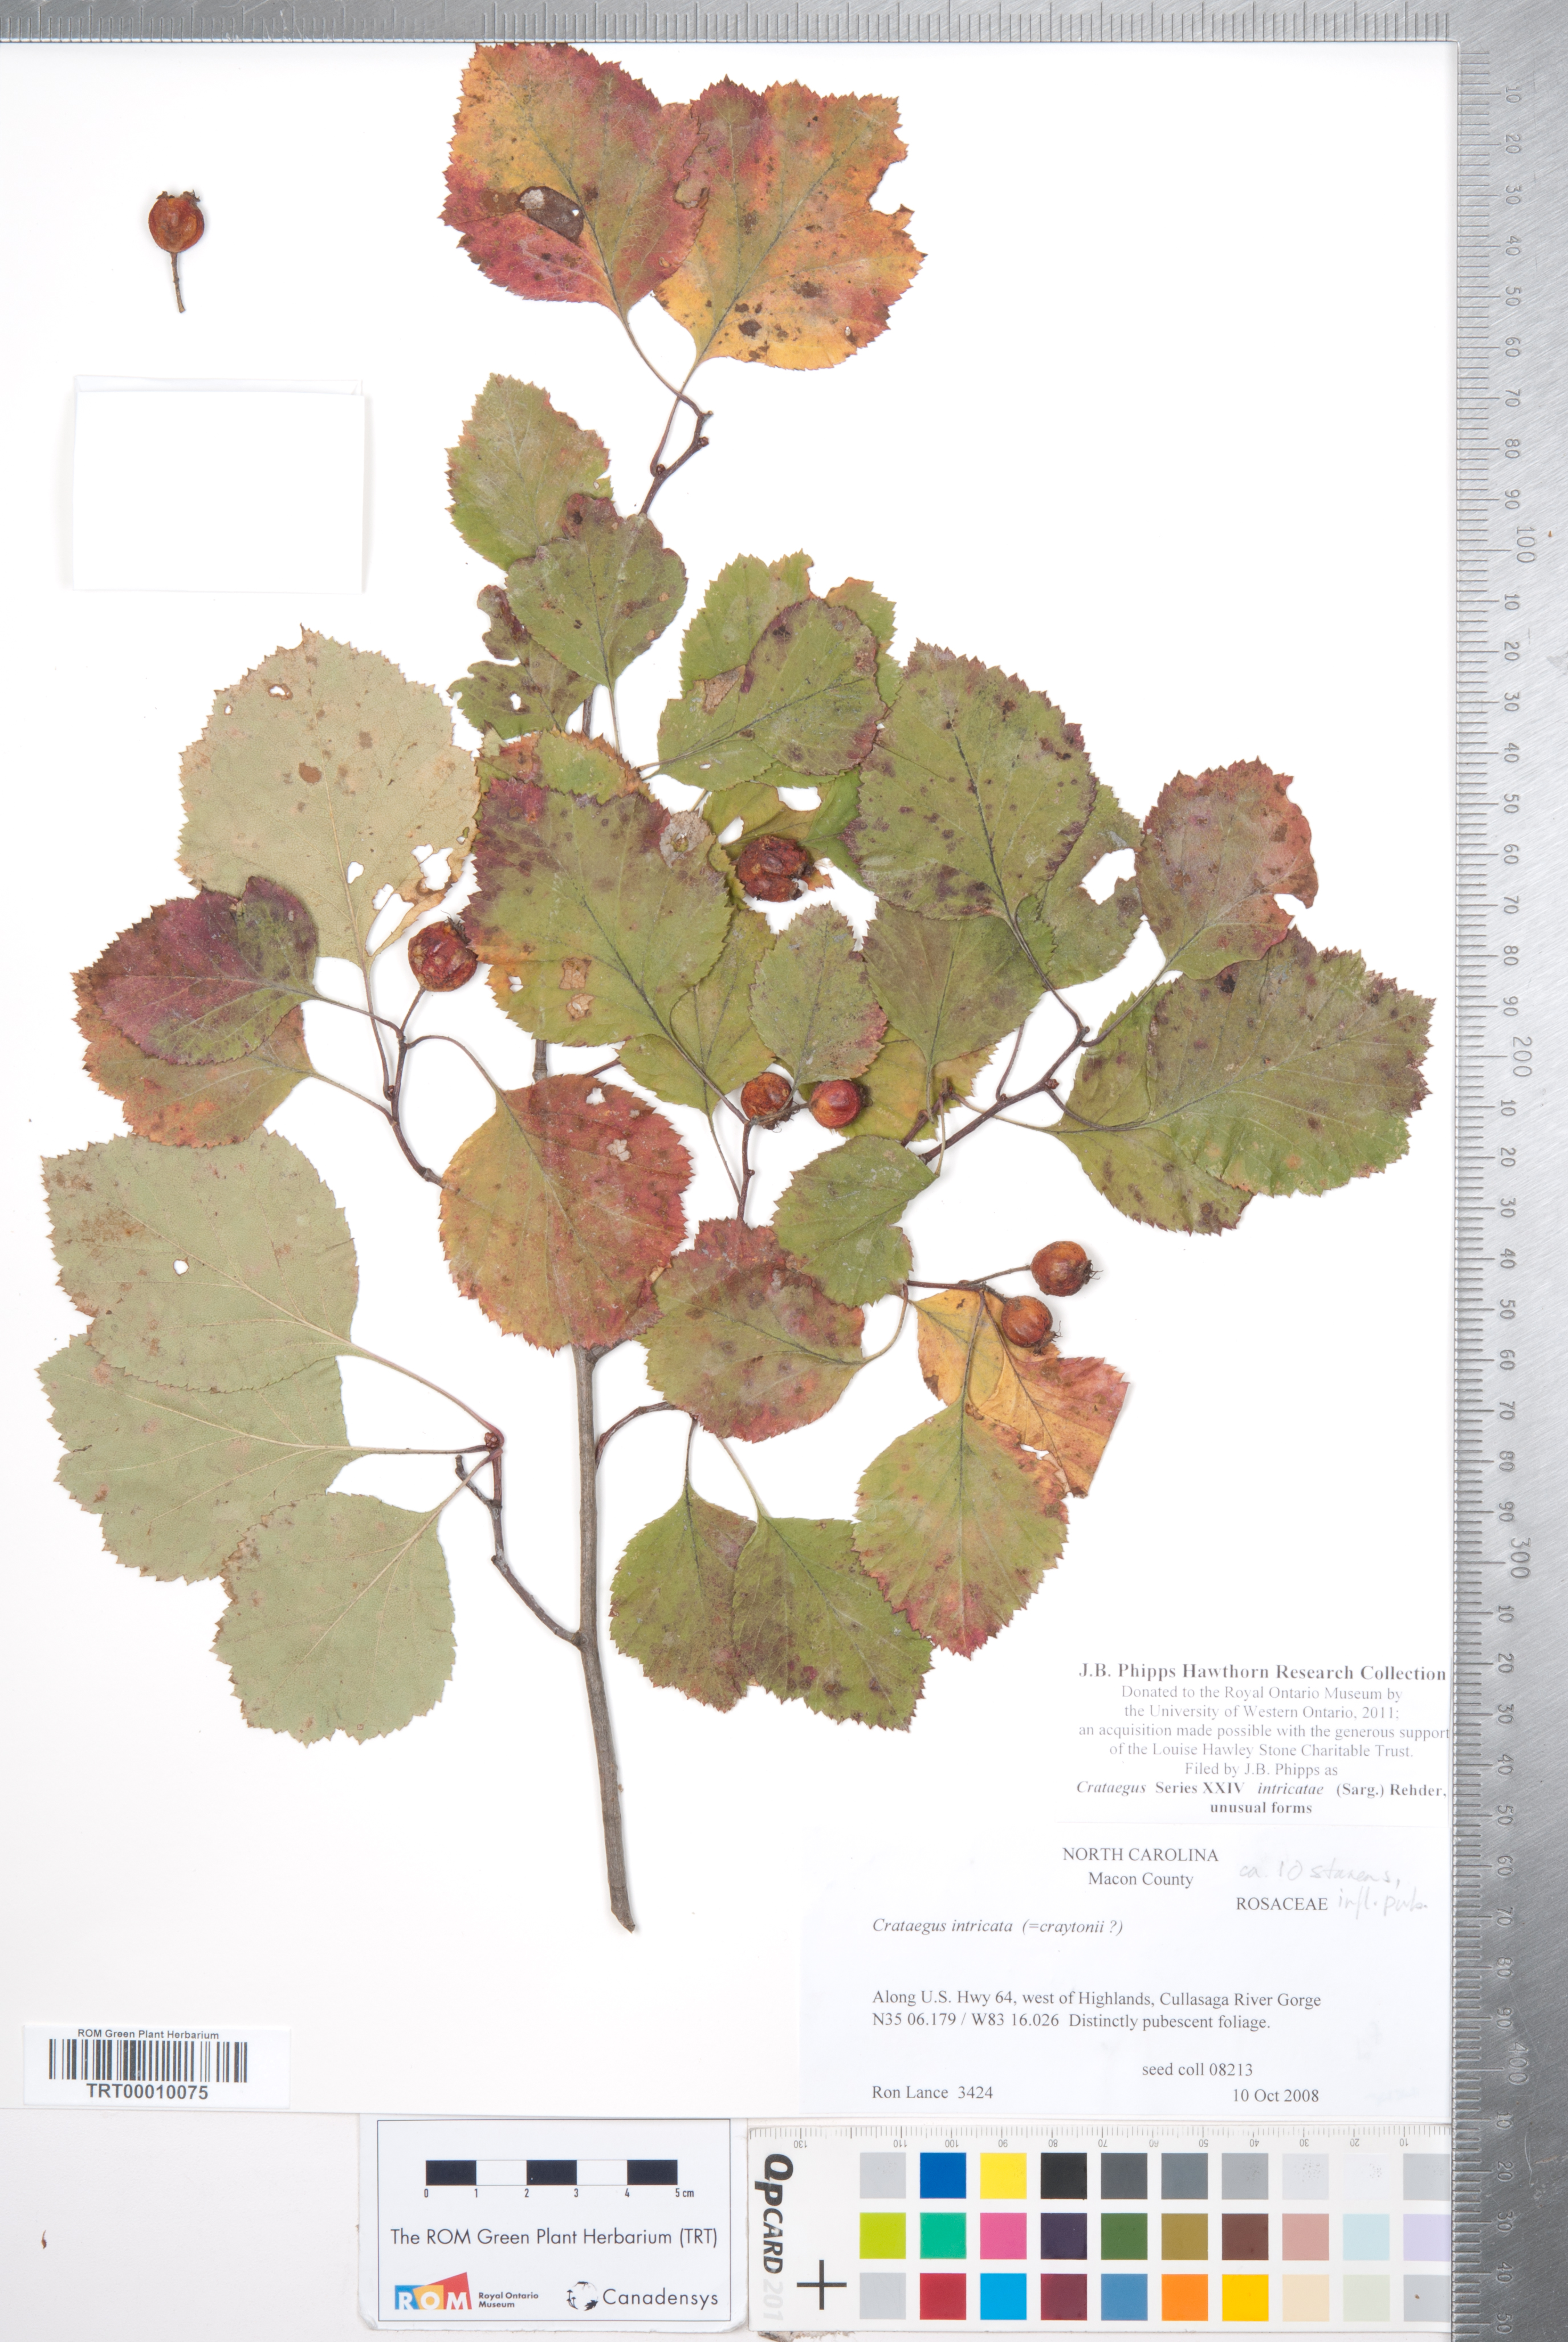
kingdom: Plantae
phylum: Tracheophyta
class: Magnoliopsida
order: Rosales
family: Rosaceae
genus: Crataegus
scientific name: Crataegus intricata
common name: Biltmore hawthorn
